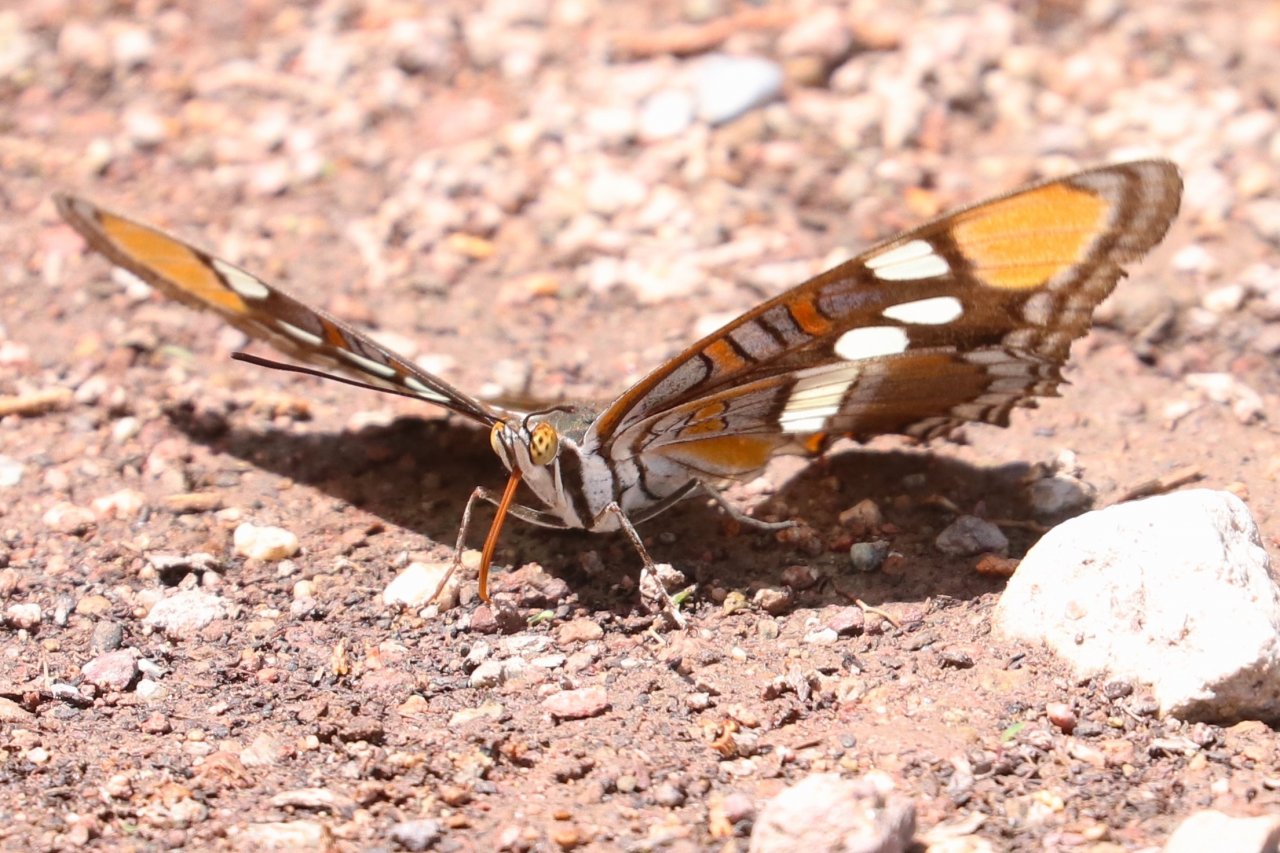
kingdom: Animalia
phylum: Arthropoda
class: Insecta
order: Lepidoptera
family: Nymphalidae
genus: Limenitis
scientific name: Limenitis bredowii
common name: Arizona Sister
